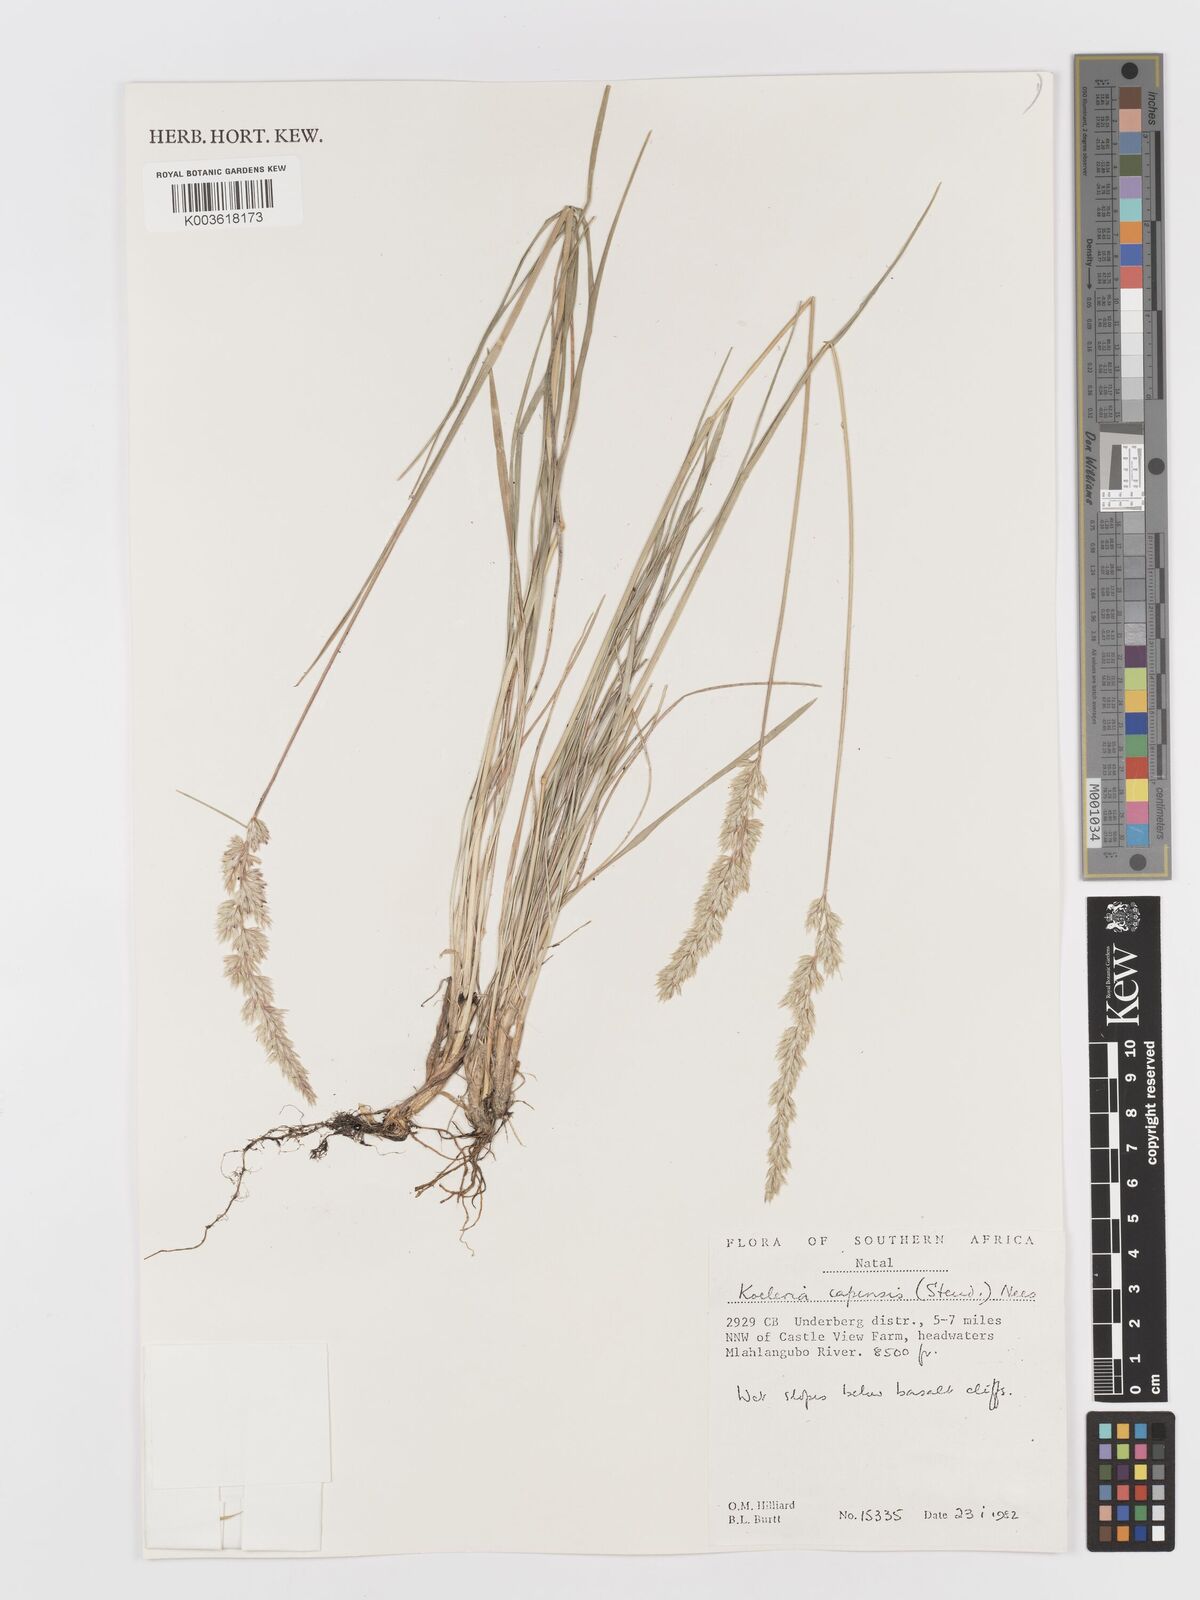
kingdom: Plantae
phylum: Tracheophyta
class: Liliopsida
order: Poales
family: Poaceae
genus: Koeleria
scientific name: Koeleria capensis
